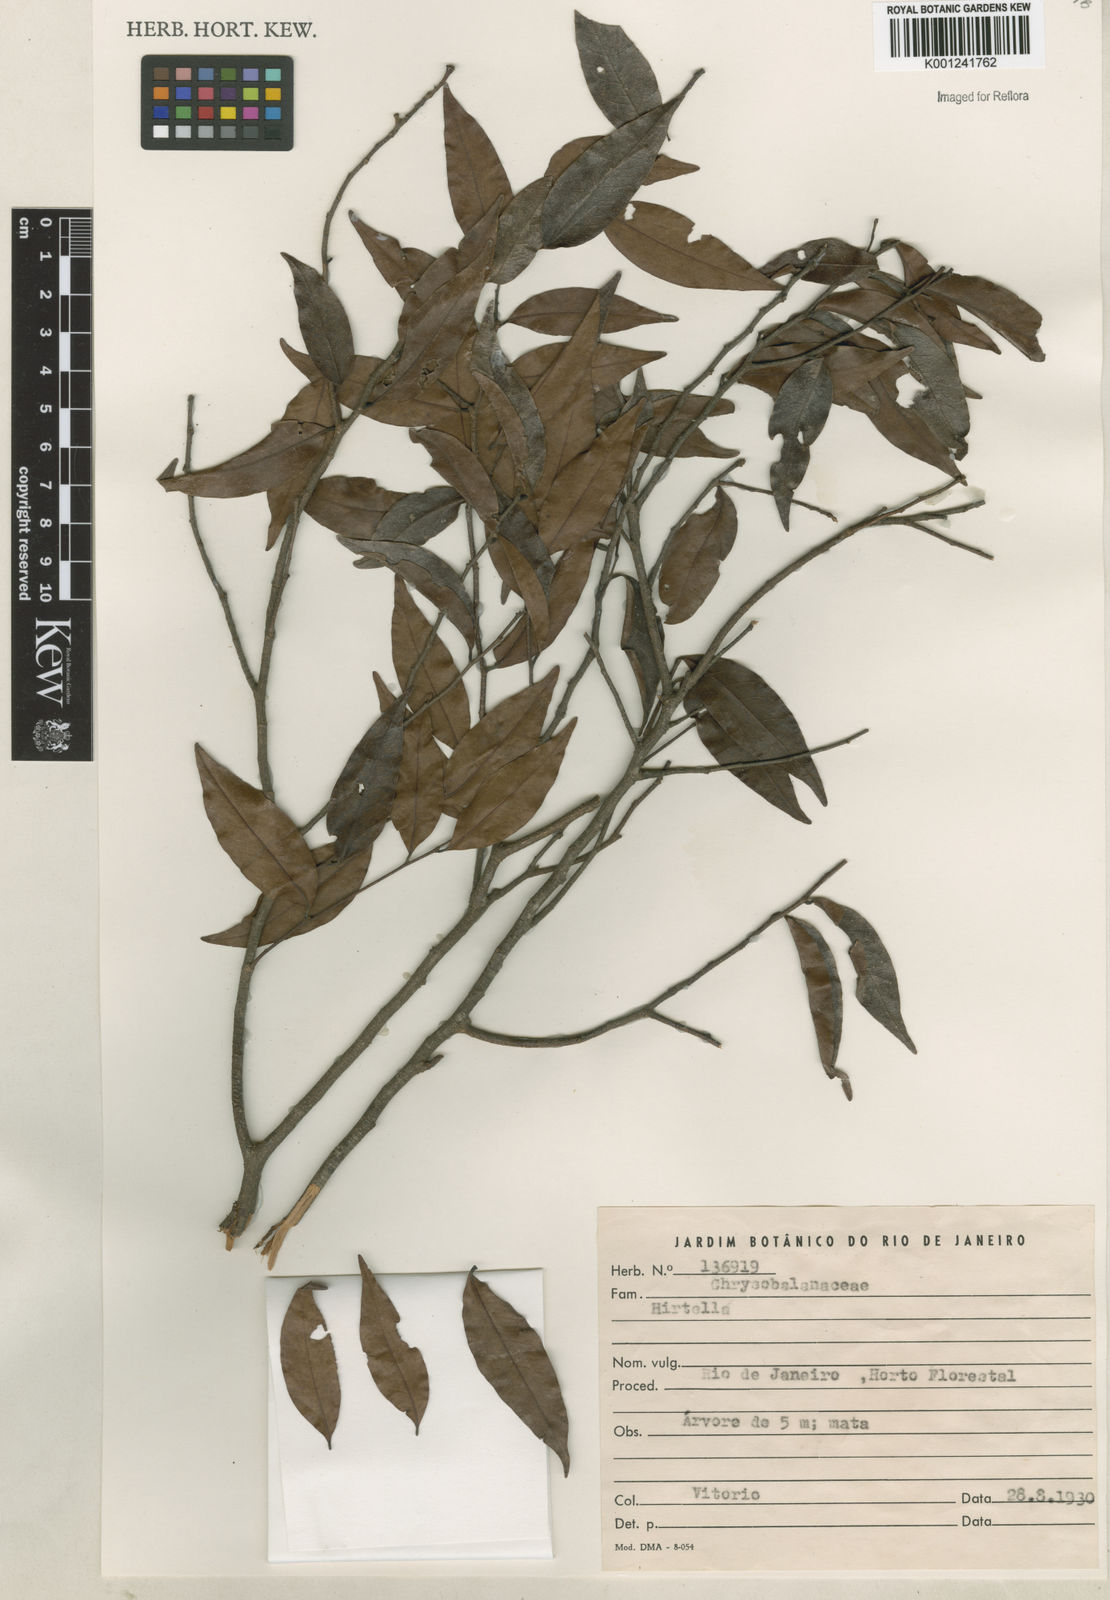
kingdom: Plantae
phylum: Tracheophyta
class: Magnoliopsida
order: Malpighiales
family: Chrysobalanaceae
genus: Hirtella
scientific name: Hirtella
